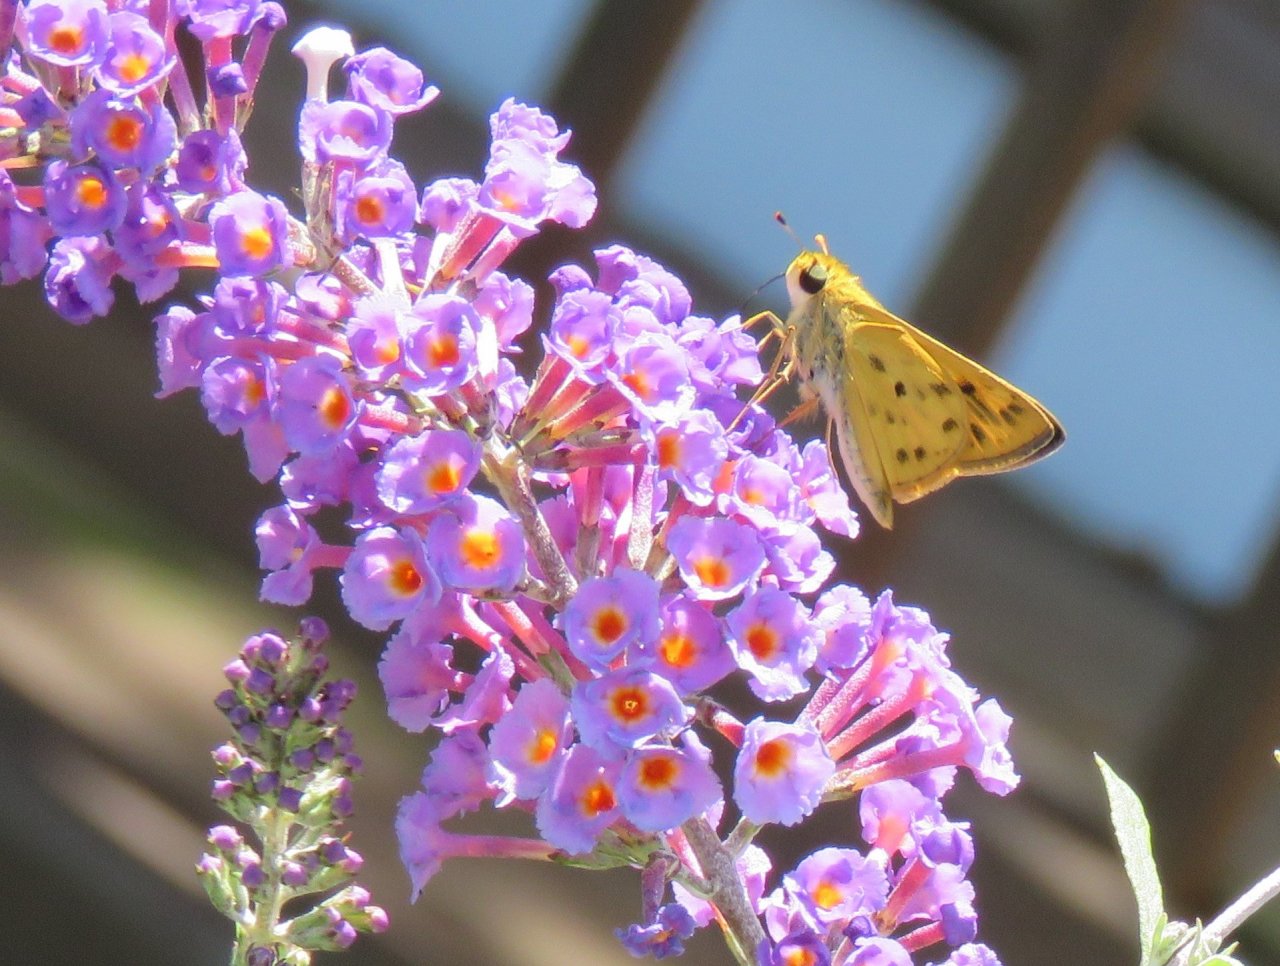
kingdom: Animalia
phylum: Arthropoda
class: Insecta
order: Lepidoptera
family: Hesperiidae
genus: Hylephila
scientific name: Hylephila phyleus
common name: Fiery Skipper
